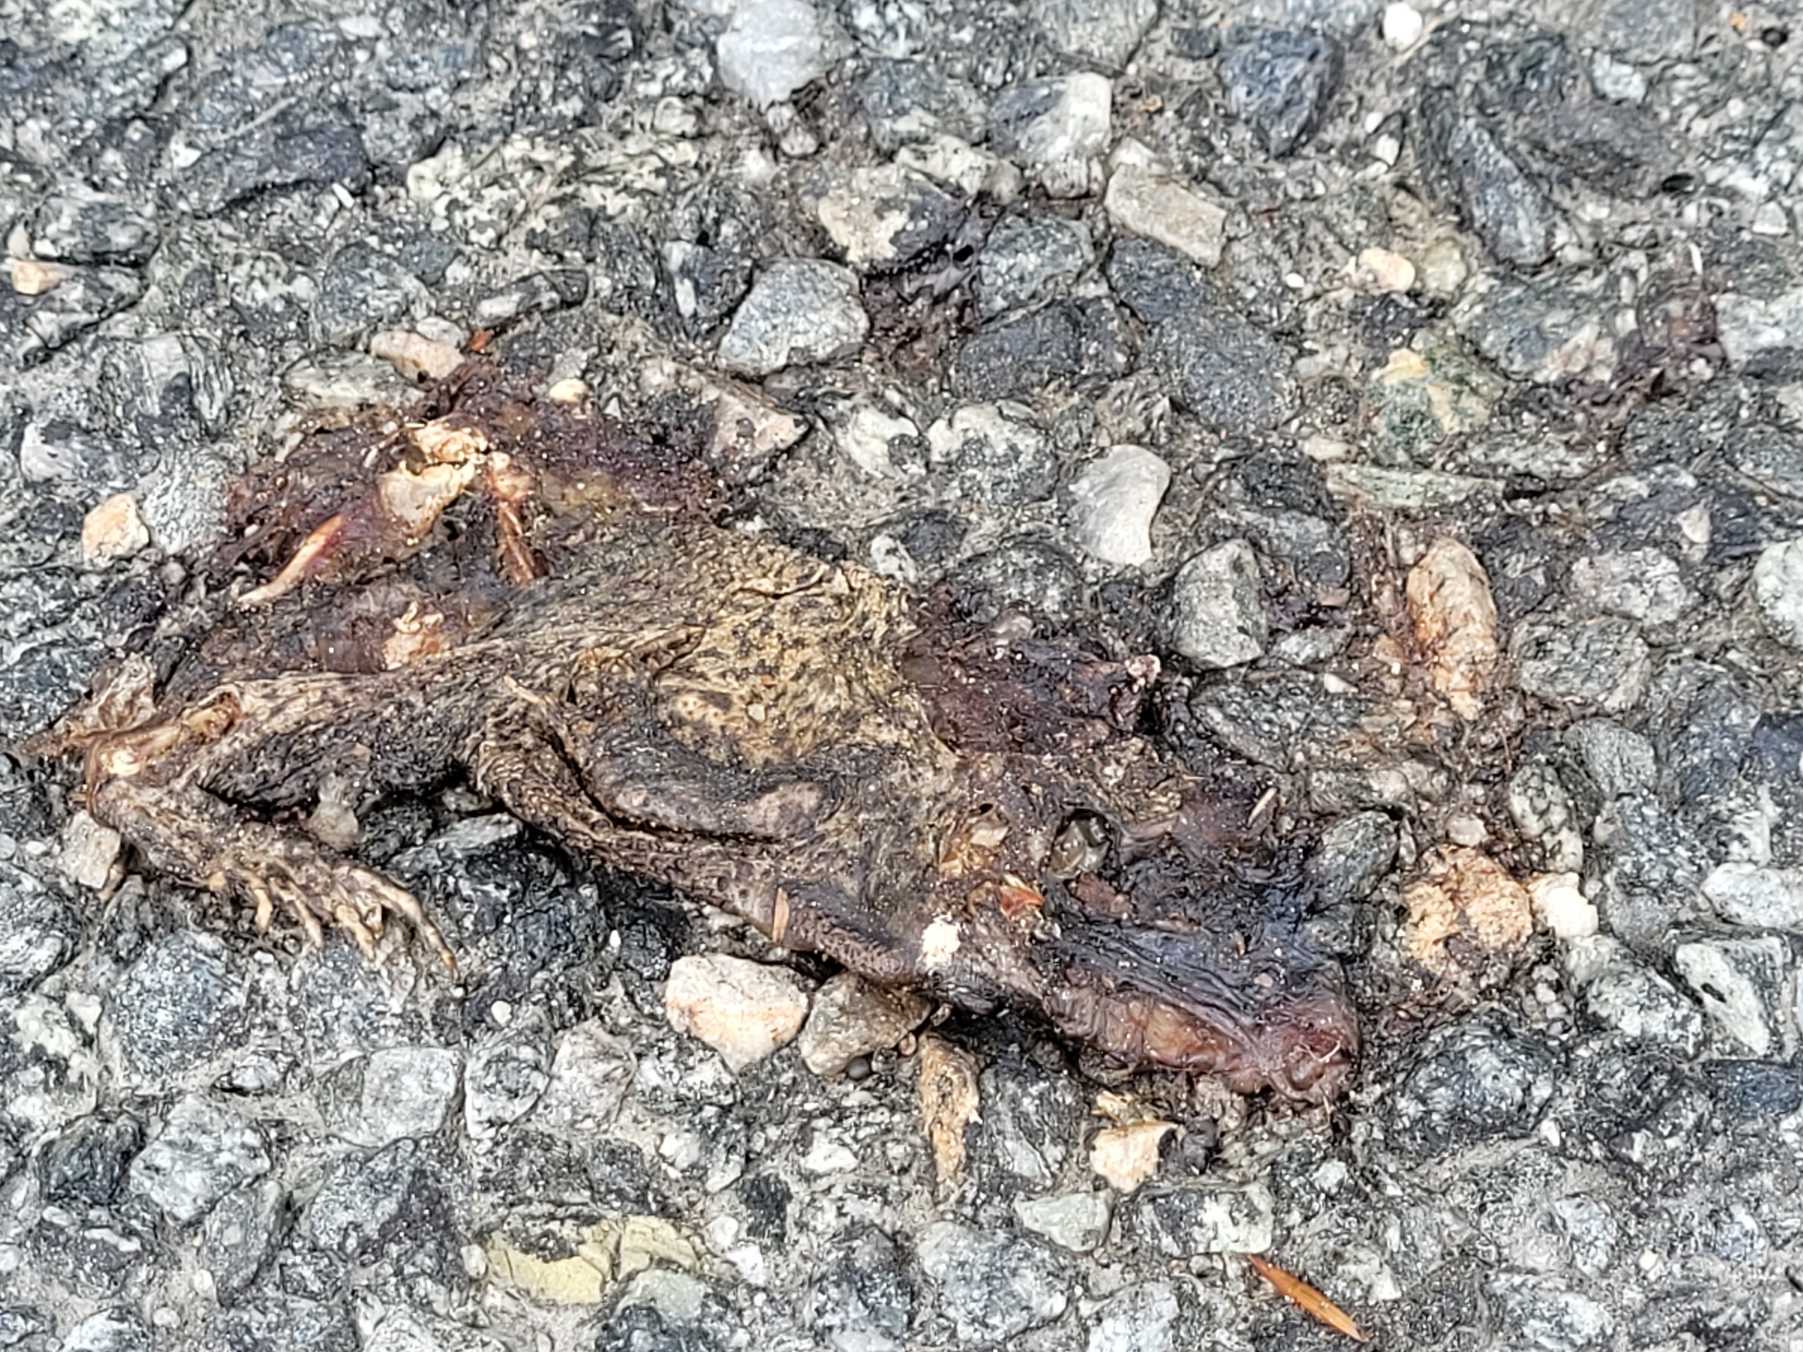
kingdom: Animalia
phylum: Chordata
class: Amphibia
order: Anura
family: Bufonidae
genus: Bufo
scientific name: Bufo bufo
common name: Skrubtudse
